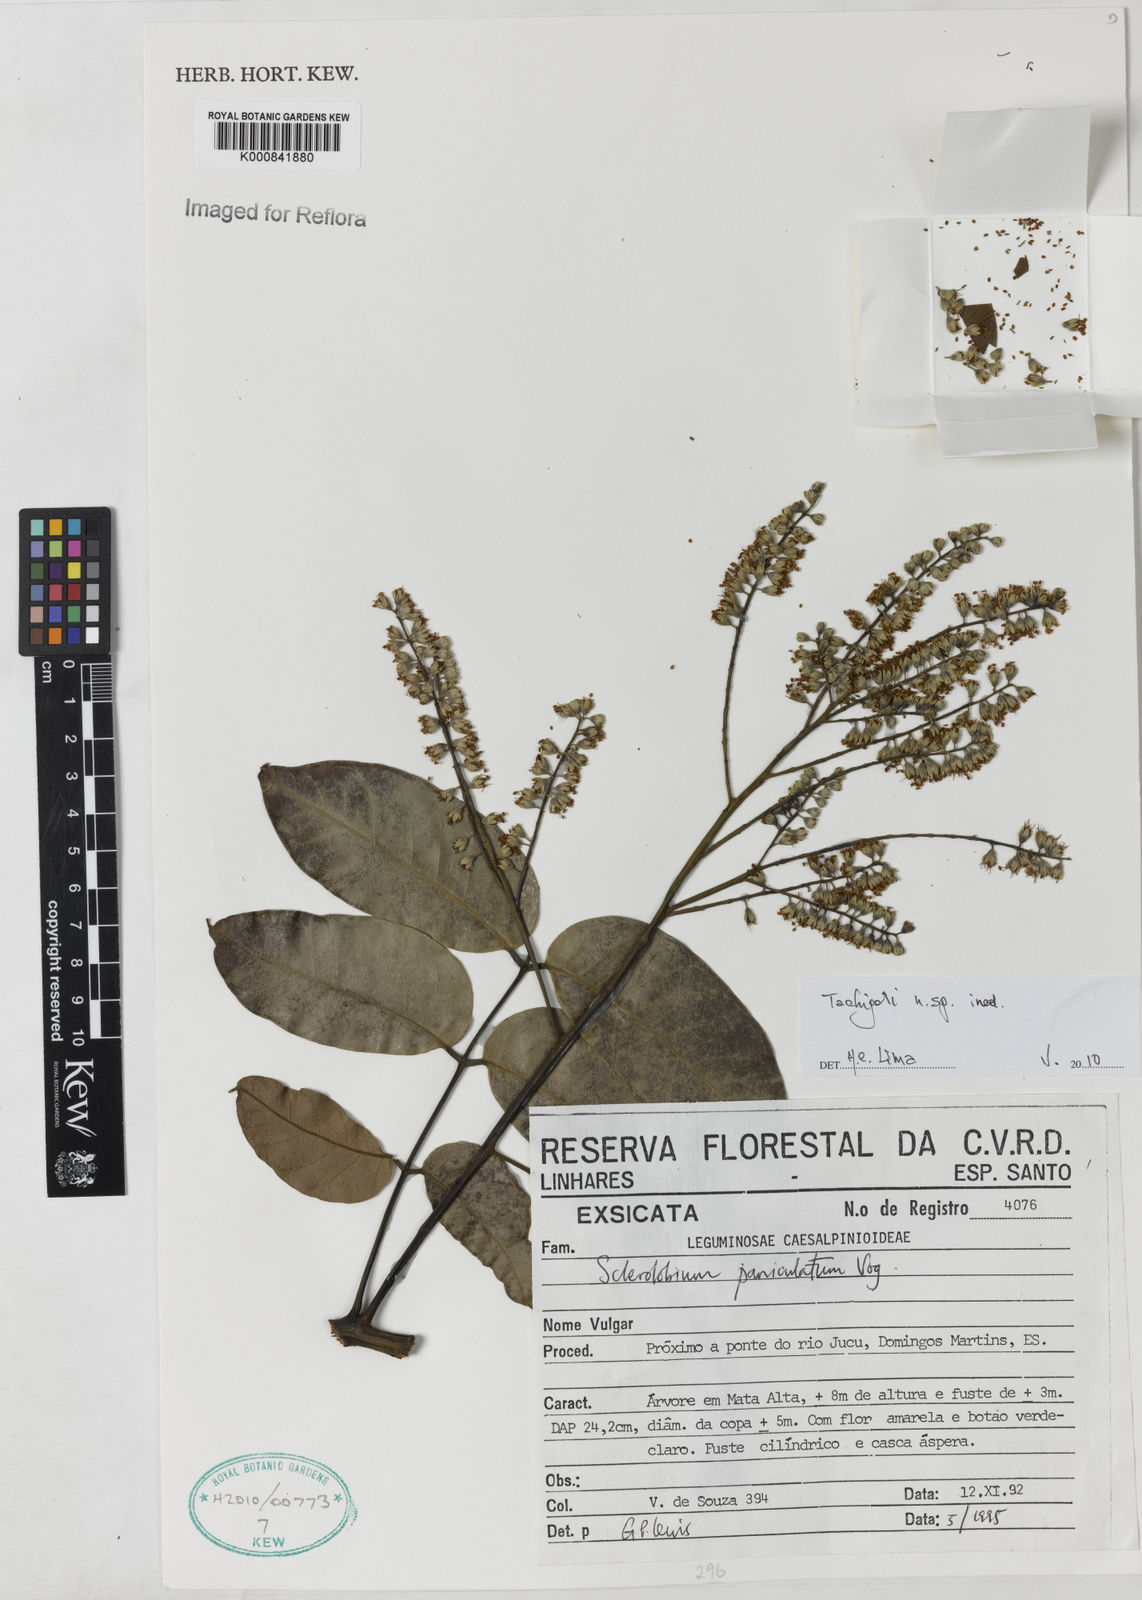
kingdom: Plantae
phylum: Tracheophyta
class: Magnoliopsida
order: Fabales
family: Fabaceae
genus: Tachigali
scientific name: Tachigali
